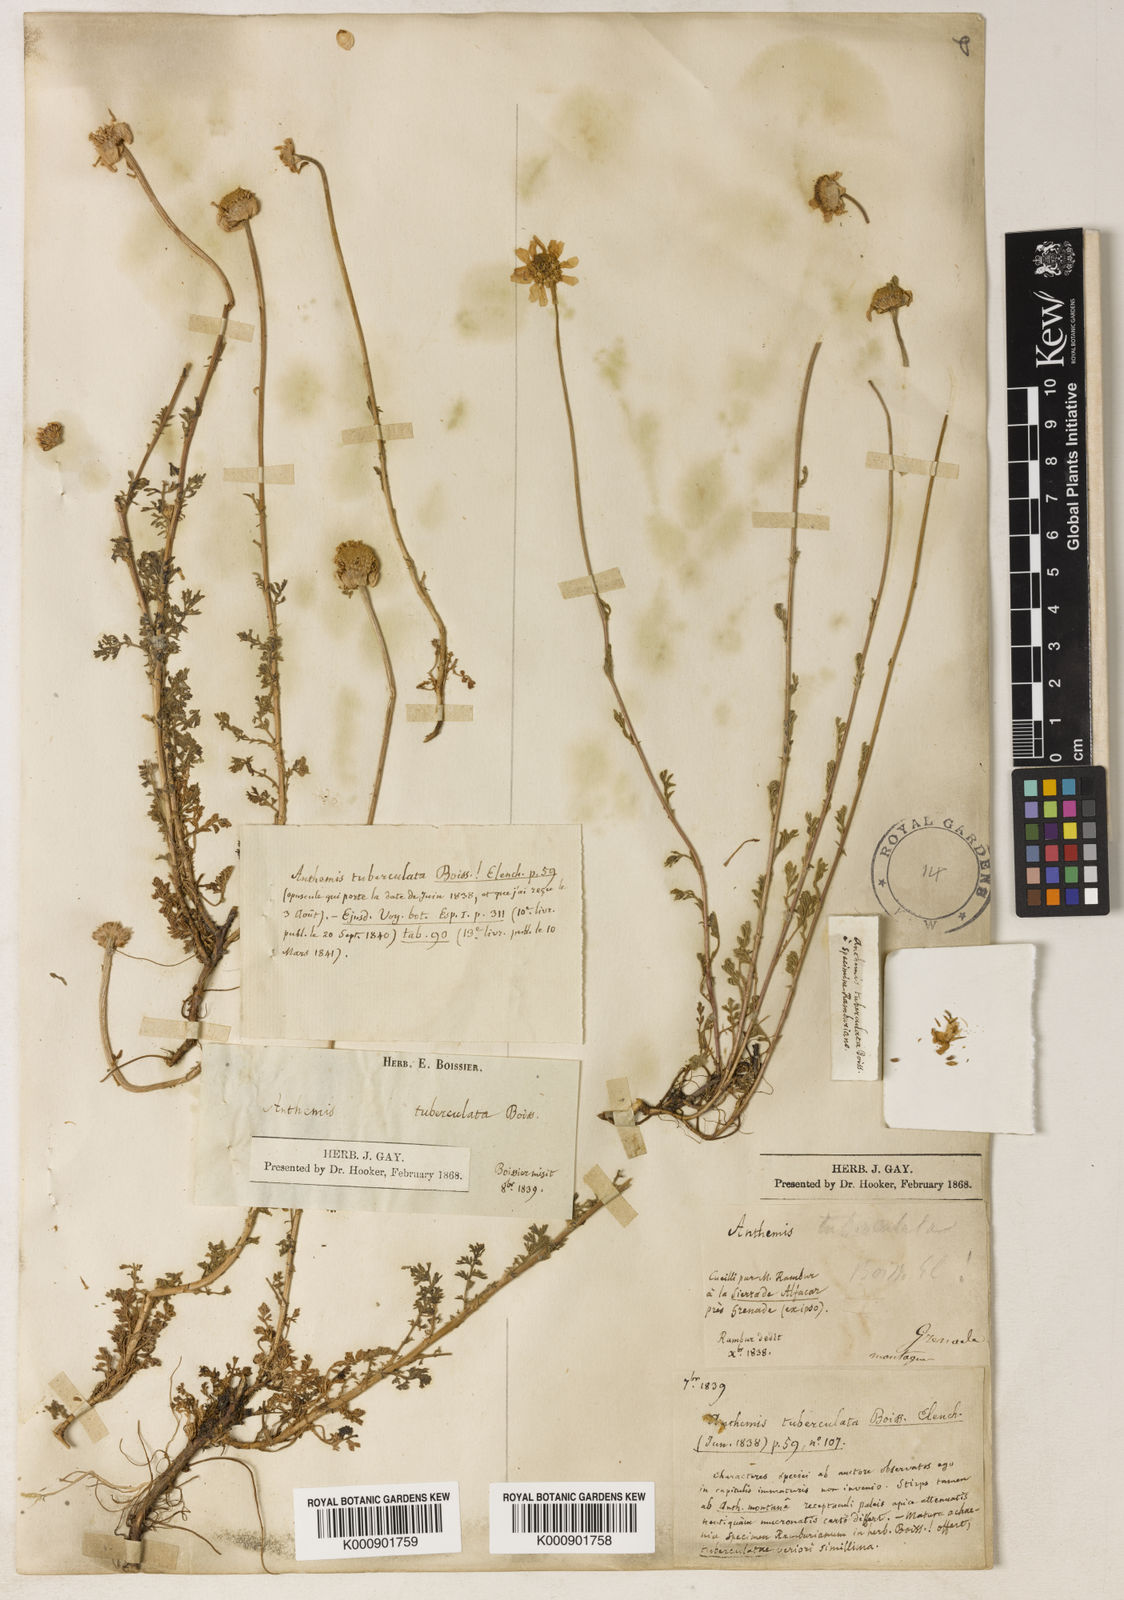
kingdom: Plantae
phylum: Tracheophyta
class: Magnoliopsida
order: Asterales
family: Asteraceae
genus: Anthemis
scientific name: Anthemis
